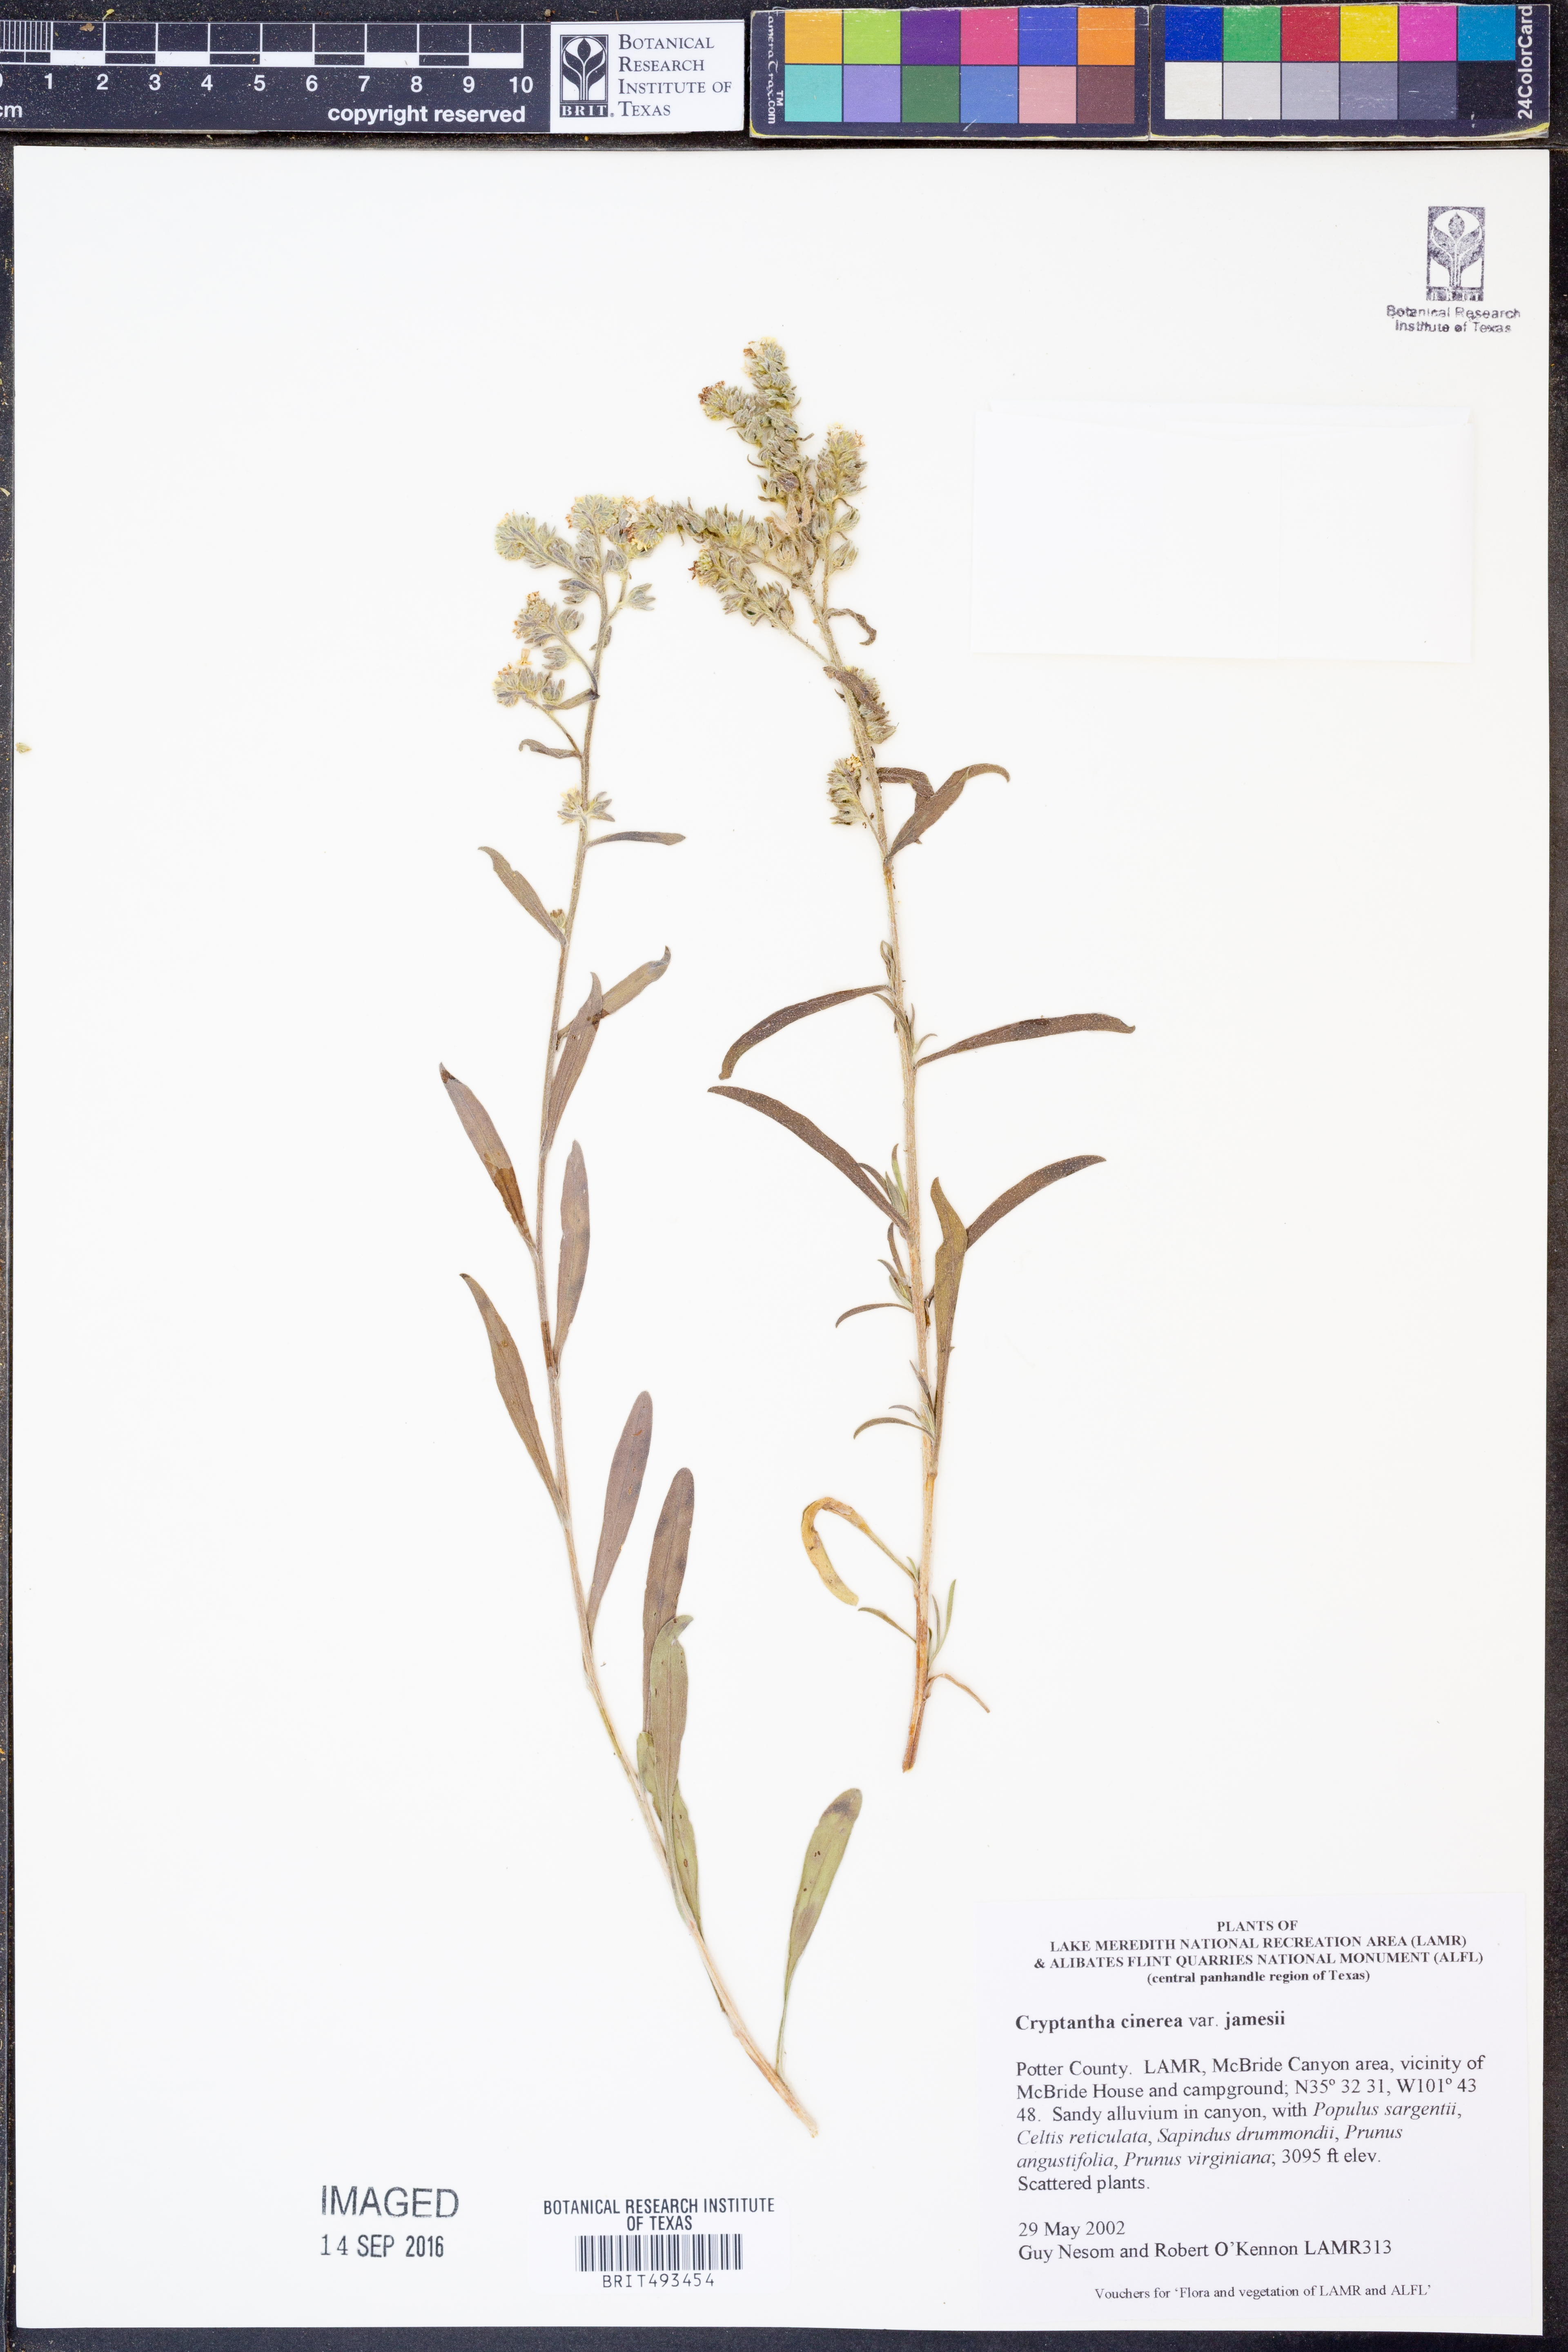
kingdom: Plantae
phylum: Tracheophyta
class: Magnoliopsida
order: Boraginales
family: Boraginaceae
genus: Oreocarya
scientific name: Oreocarya suffruticosa
